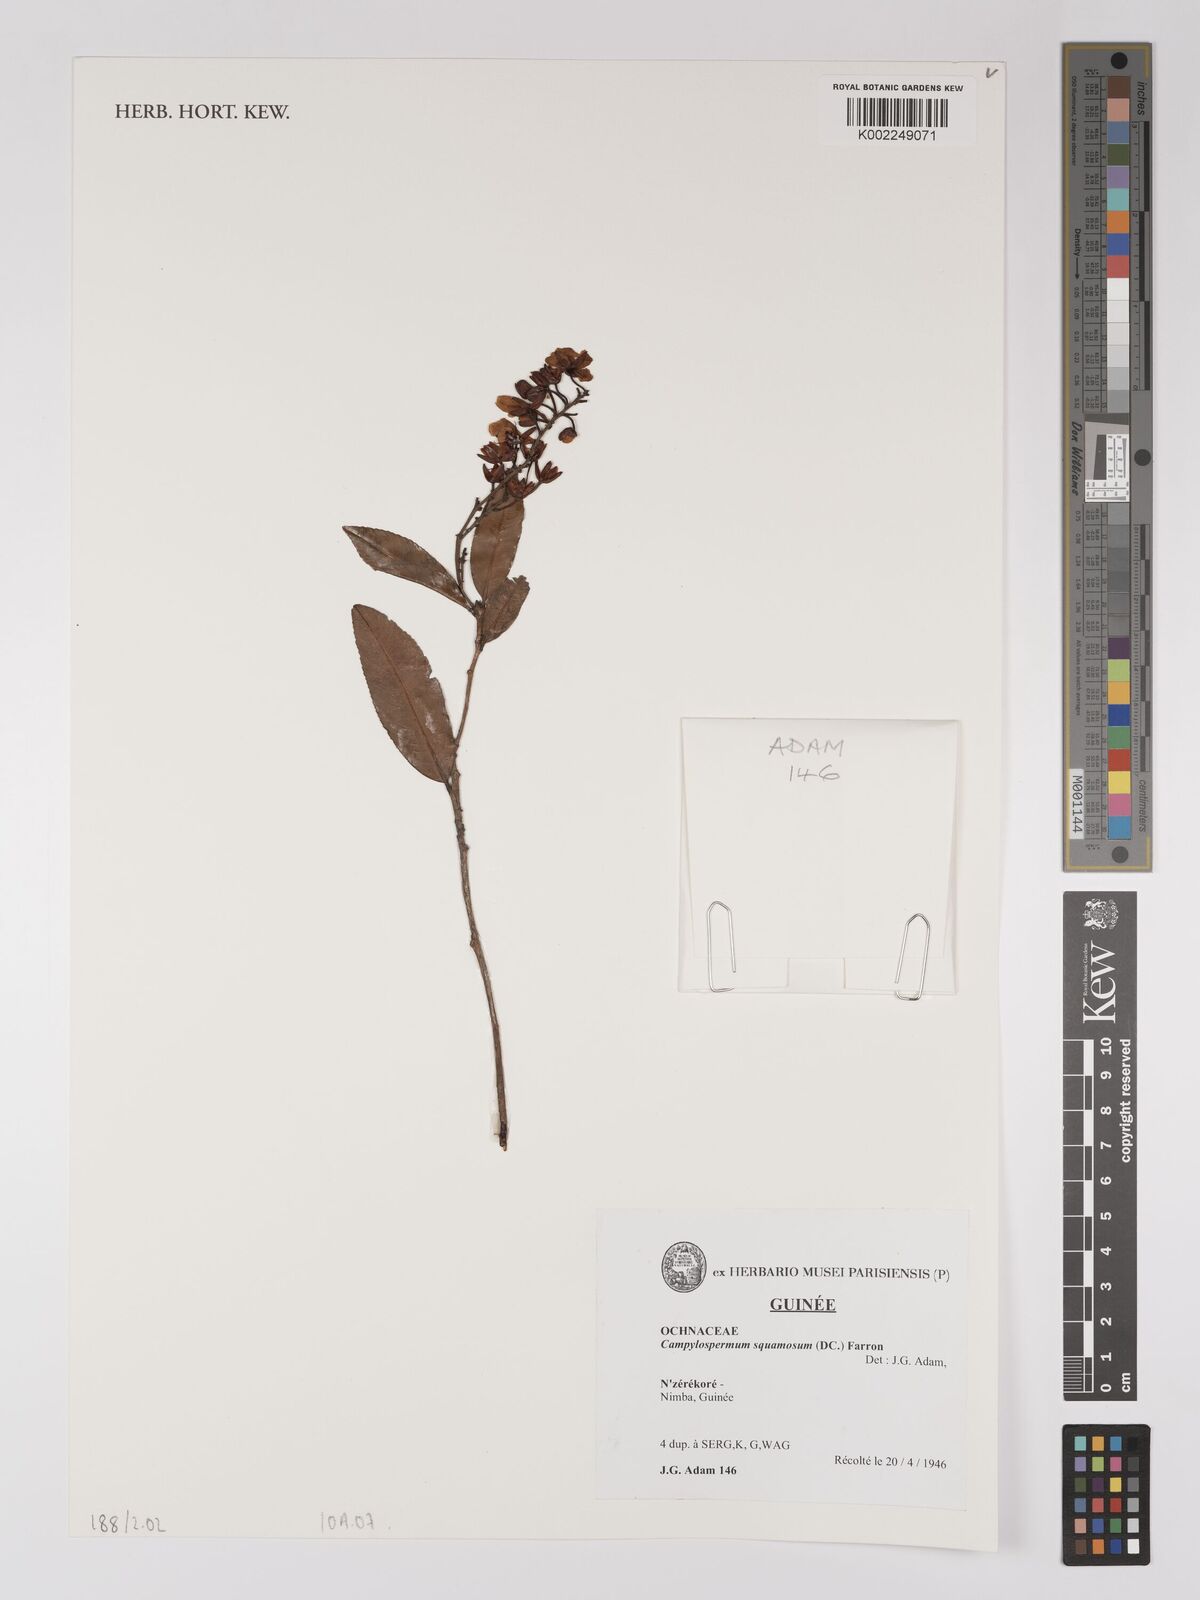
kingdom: Plantae
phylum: Tracheophyta
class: Magnoliopsida
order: Malpighiales
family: Ochnaceae
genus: Campylospermum
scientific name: Campylospermum squamosum
